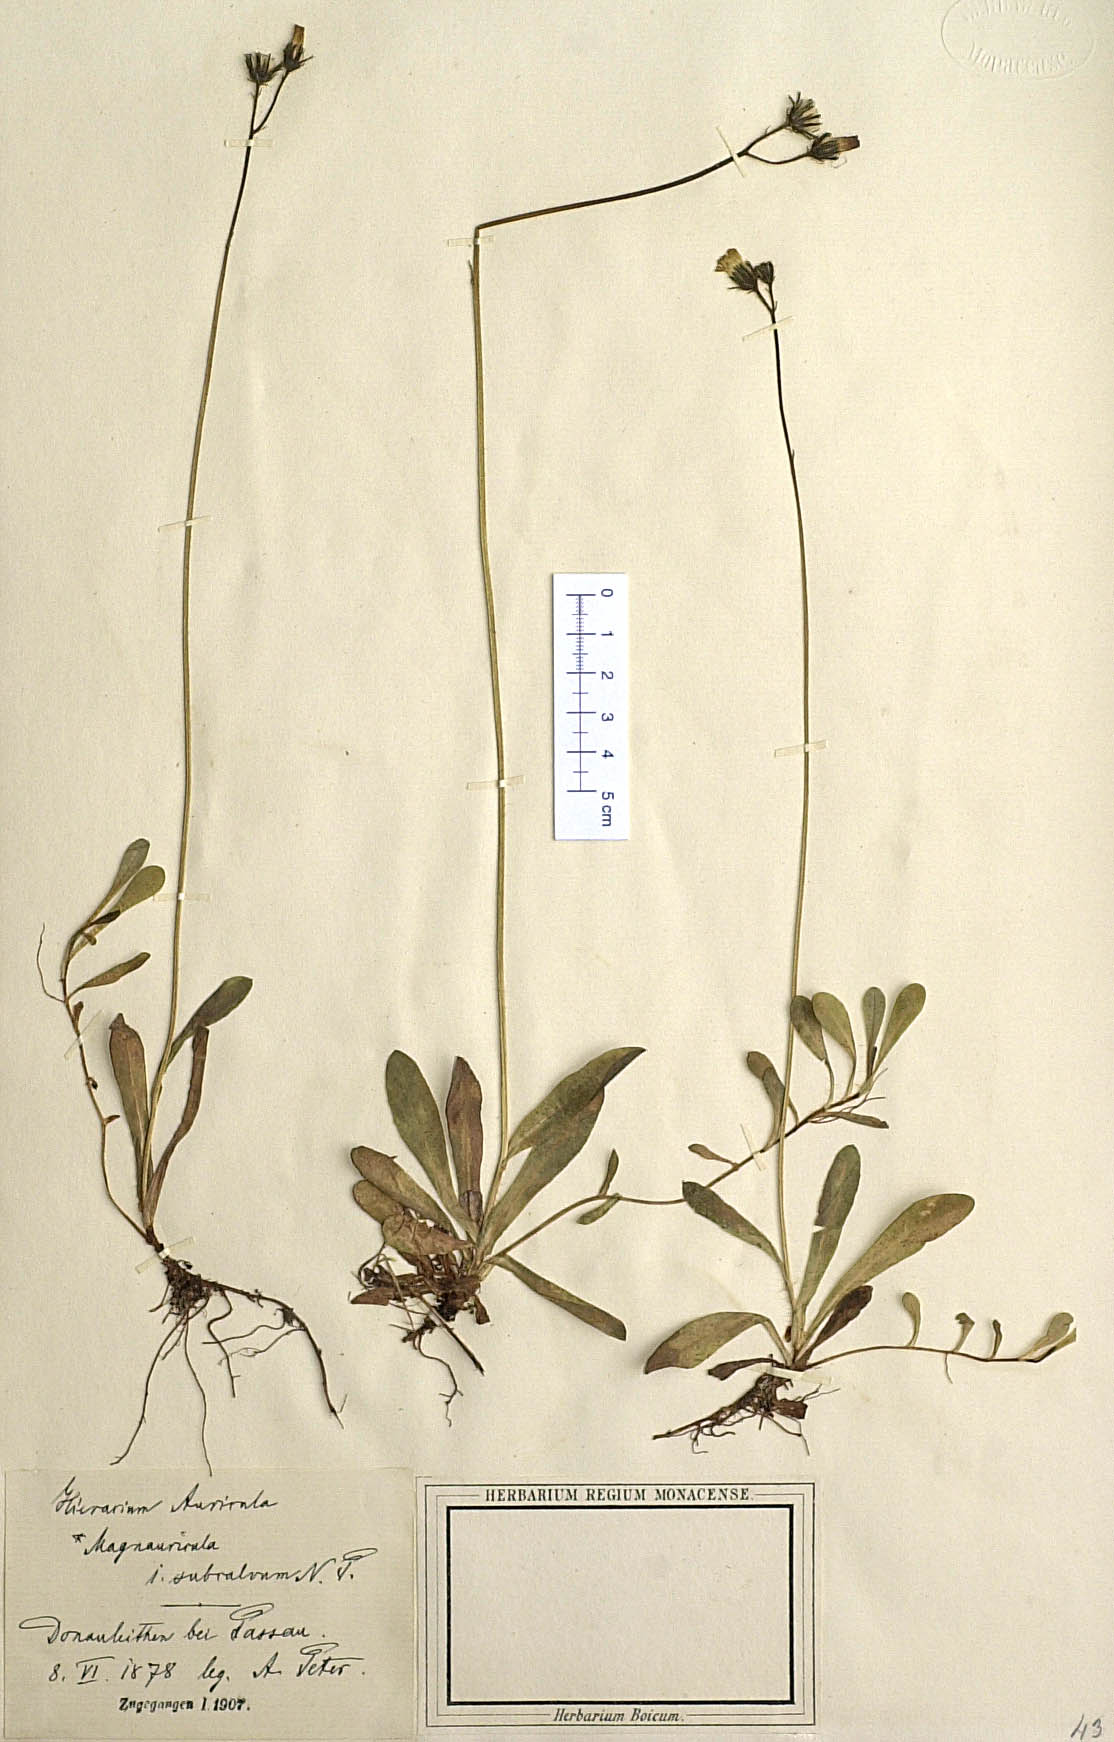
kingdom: Plantae
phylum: Tracheophyta
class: Magnoliopsida
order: Asterales
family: Asteraceae
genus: Pilosella
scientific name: Pilosella lactucella
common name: Glaucous fox-and-cubs
